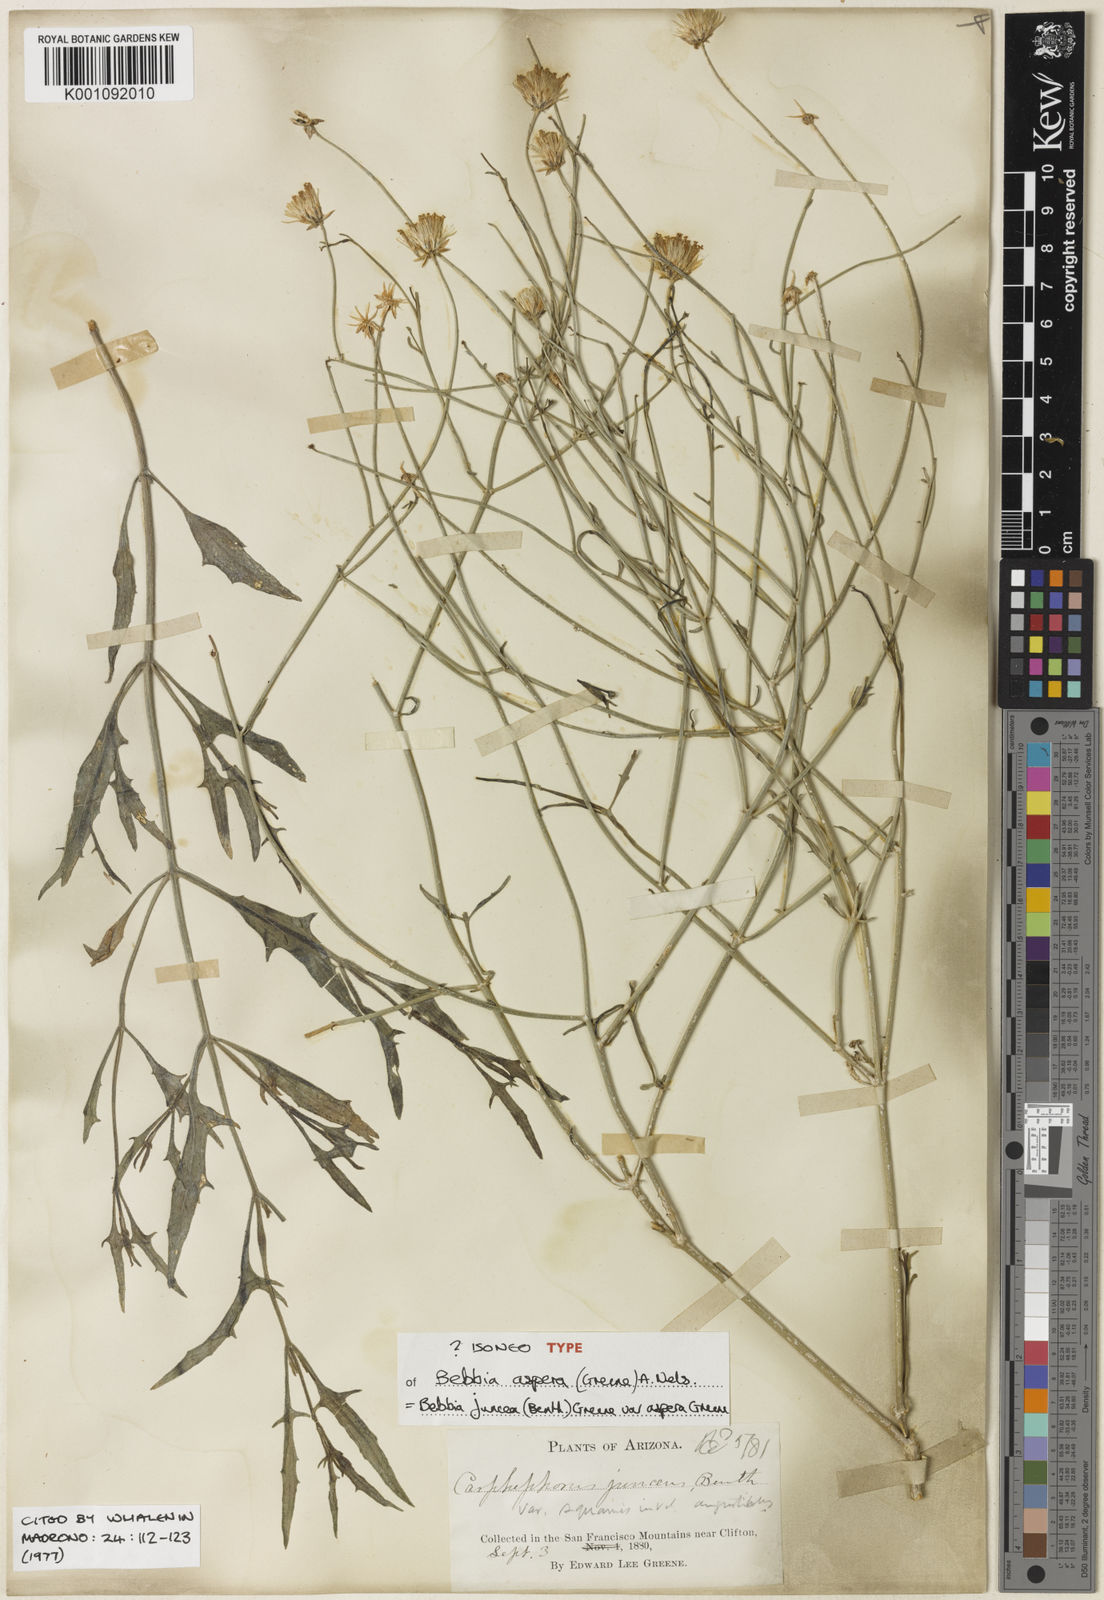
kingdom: Plantae
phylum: Tracheophyta
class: Magnoliopsida
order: Asterales
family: Asteraceae
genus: Bebbia
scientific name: Bebbia juncea
